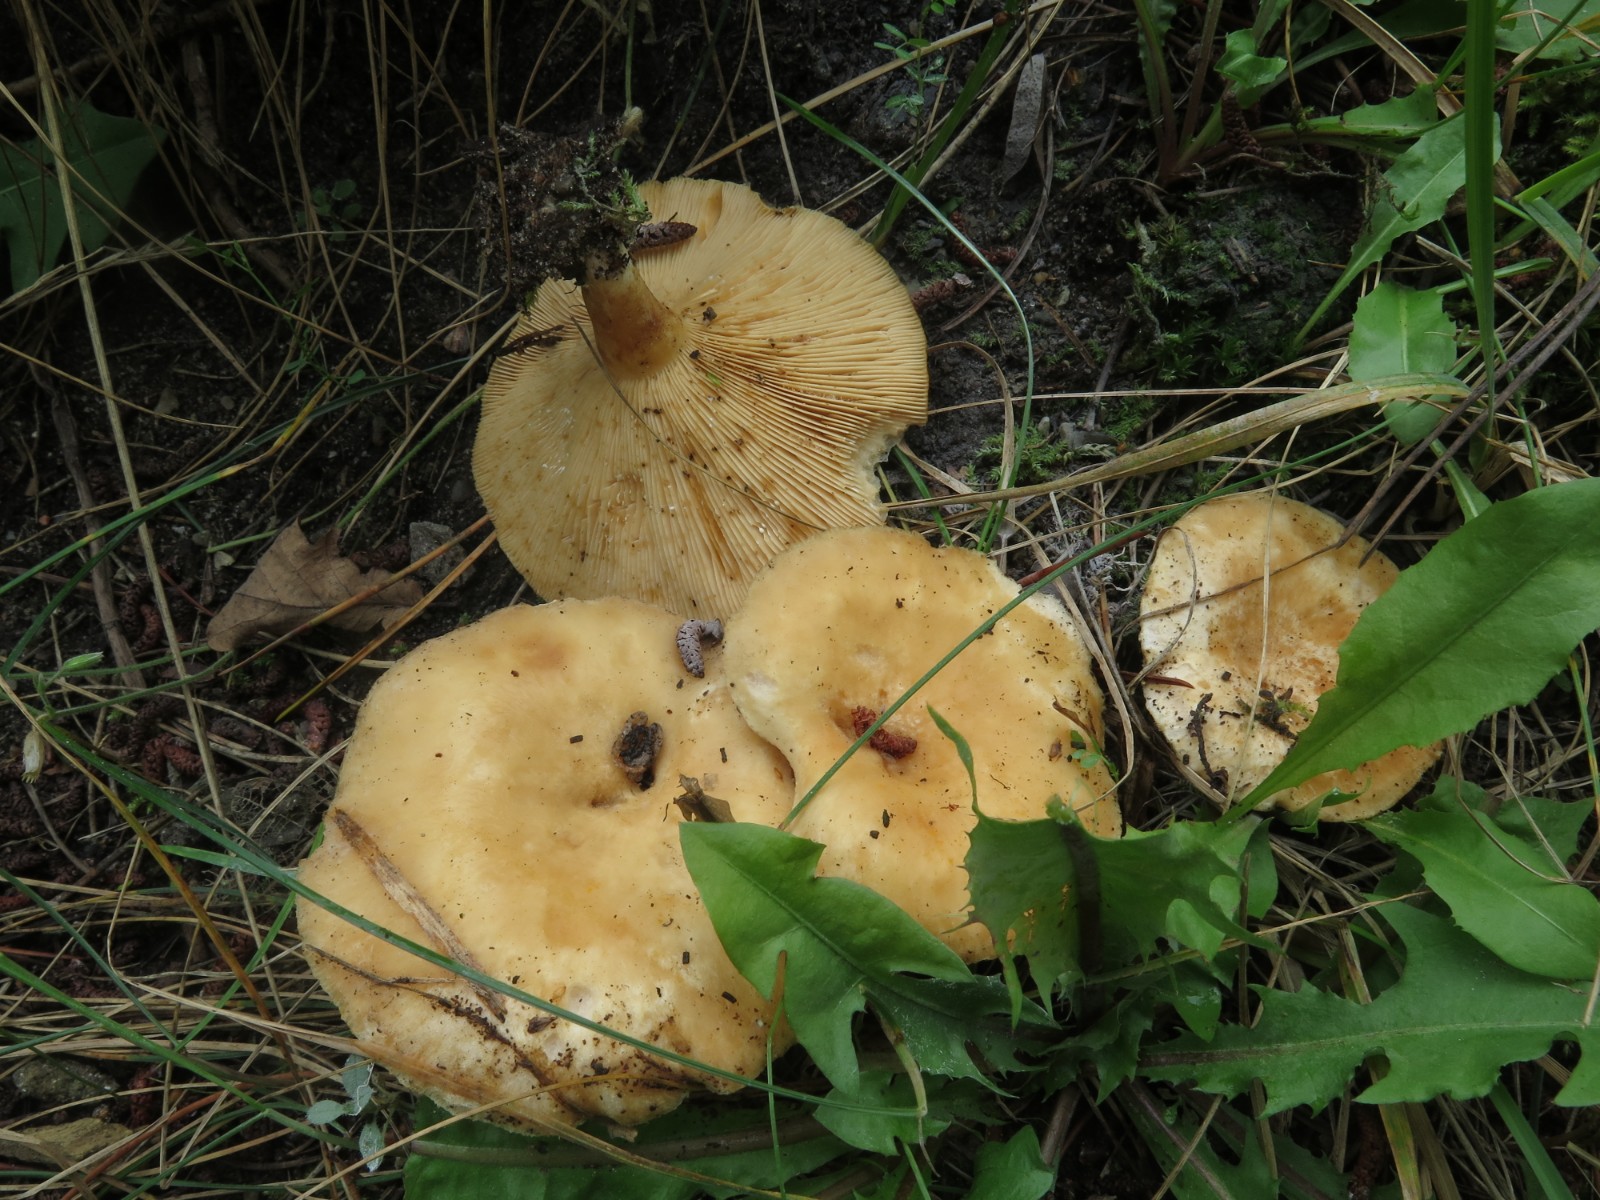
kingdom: Fungi
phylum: Basidiomycota
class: Agaricomycetes
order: Russulales
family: Russulaceae
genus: Lactarius
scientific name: Lactarius pubescens
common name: dunet mælkehat
